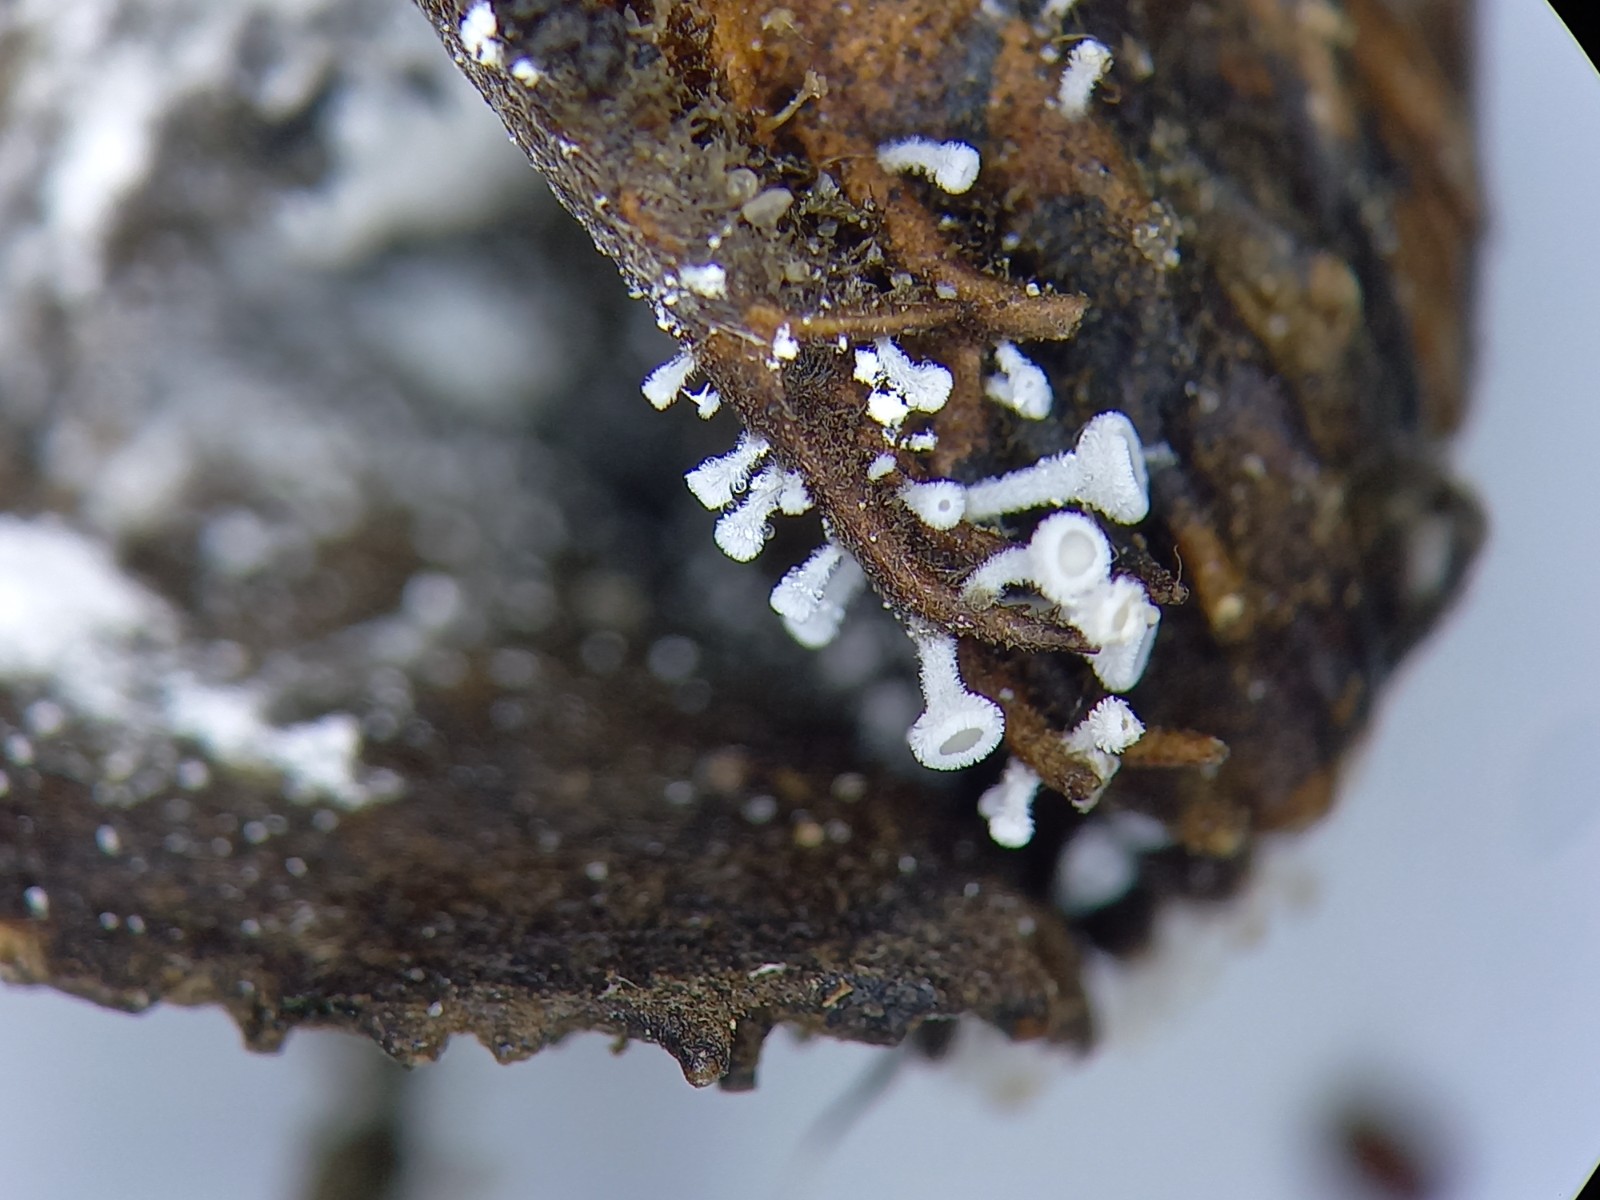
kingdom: Fungi
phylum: Ascomycota
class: Leotiomycetes
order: Helotiales
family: Lachnaceae
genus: Lachnum
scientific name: Lachnum virgineum
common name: jomfru-frynseskive
